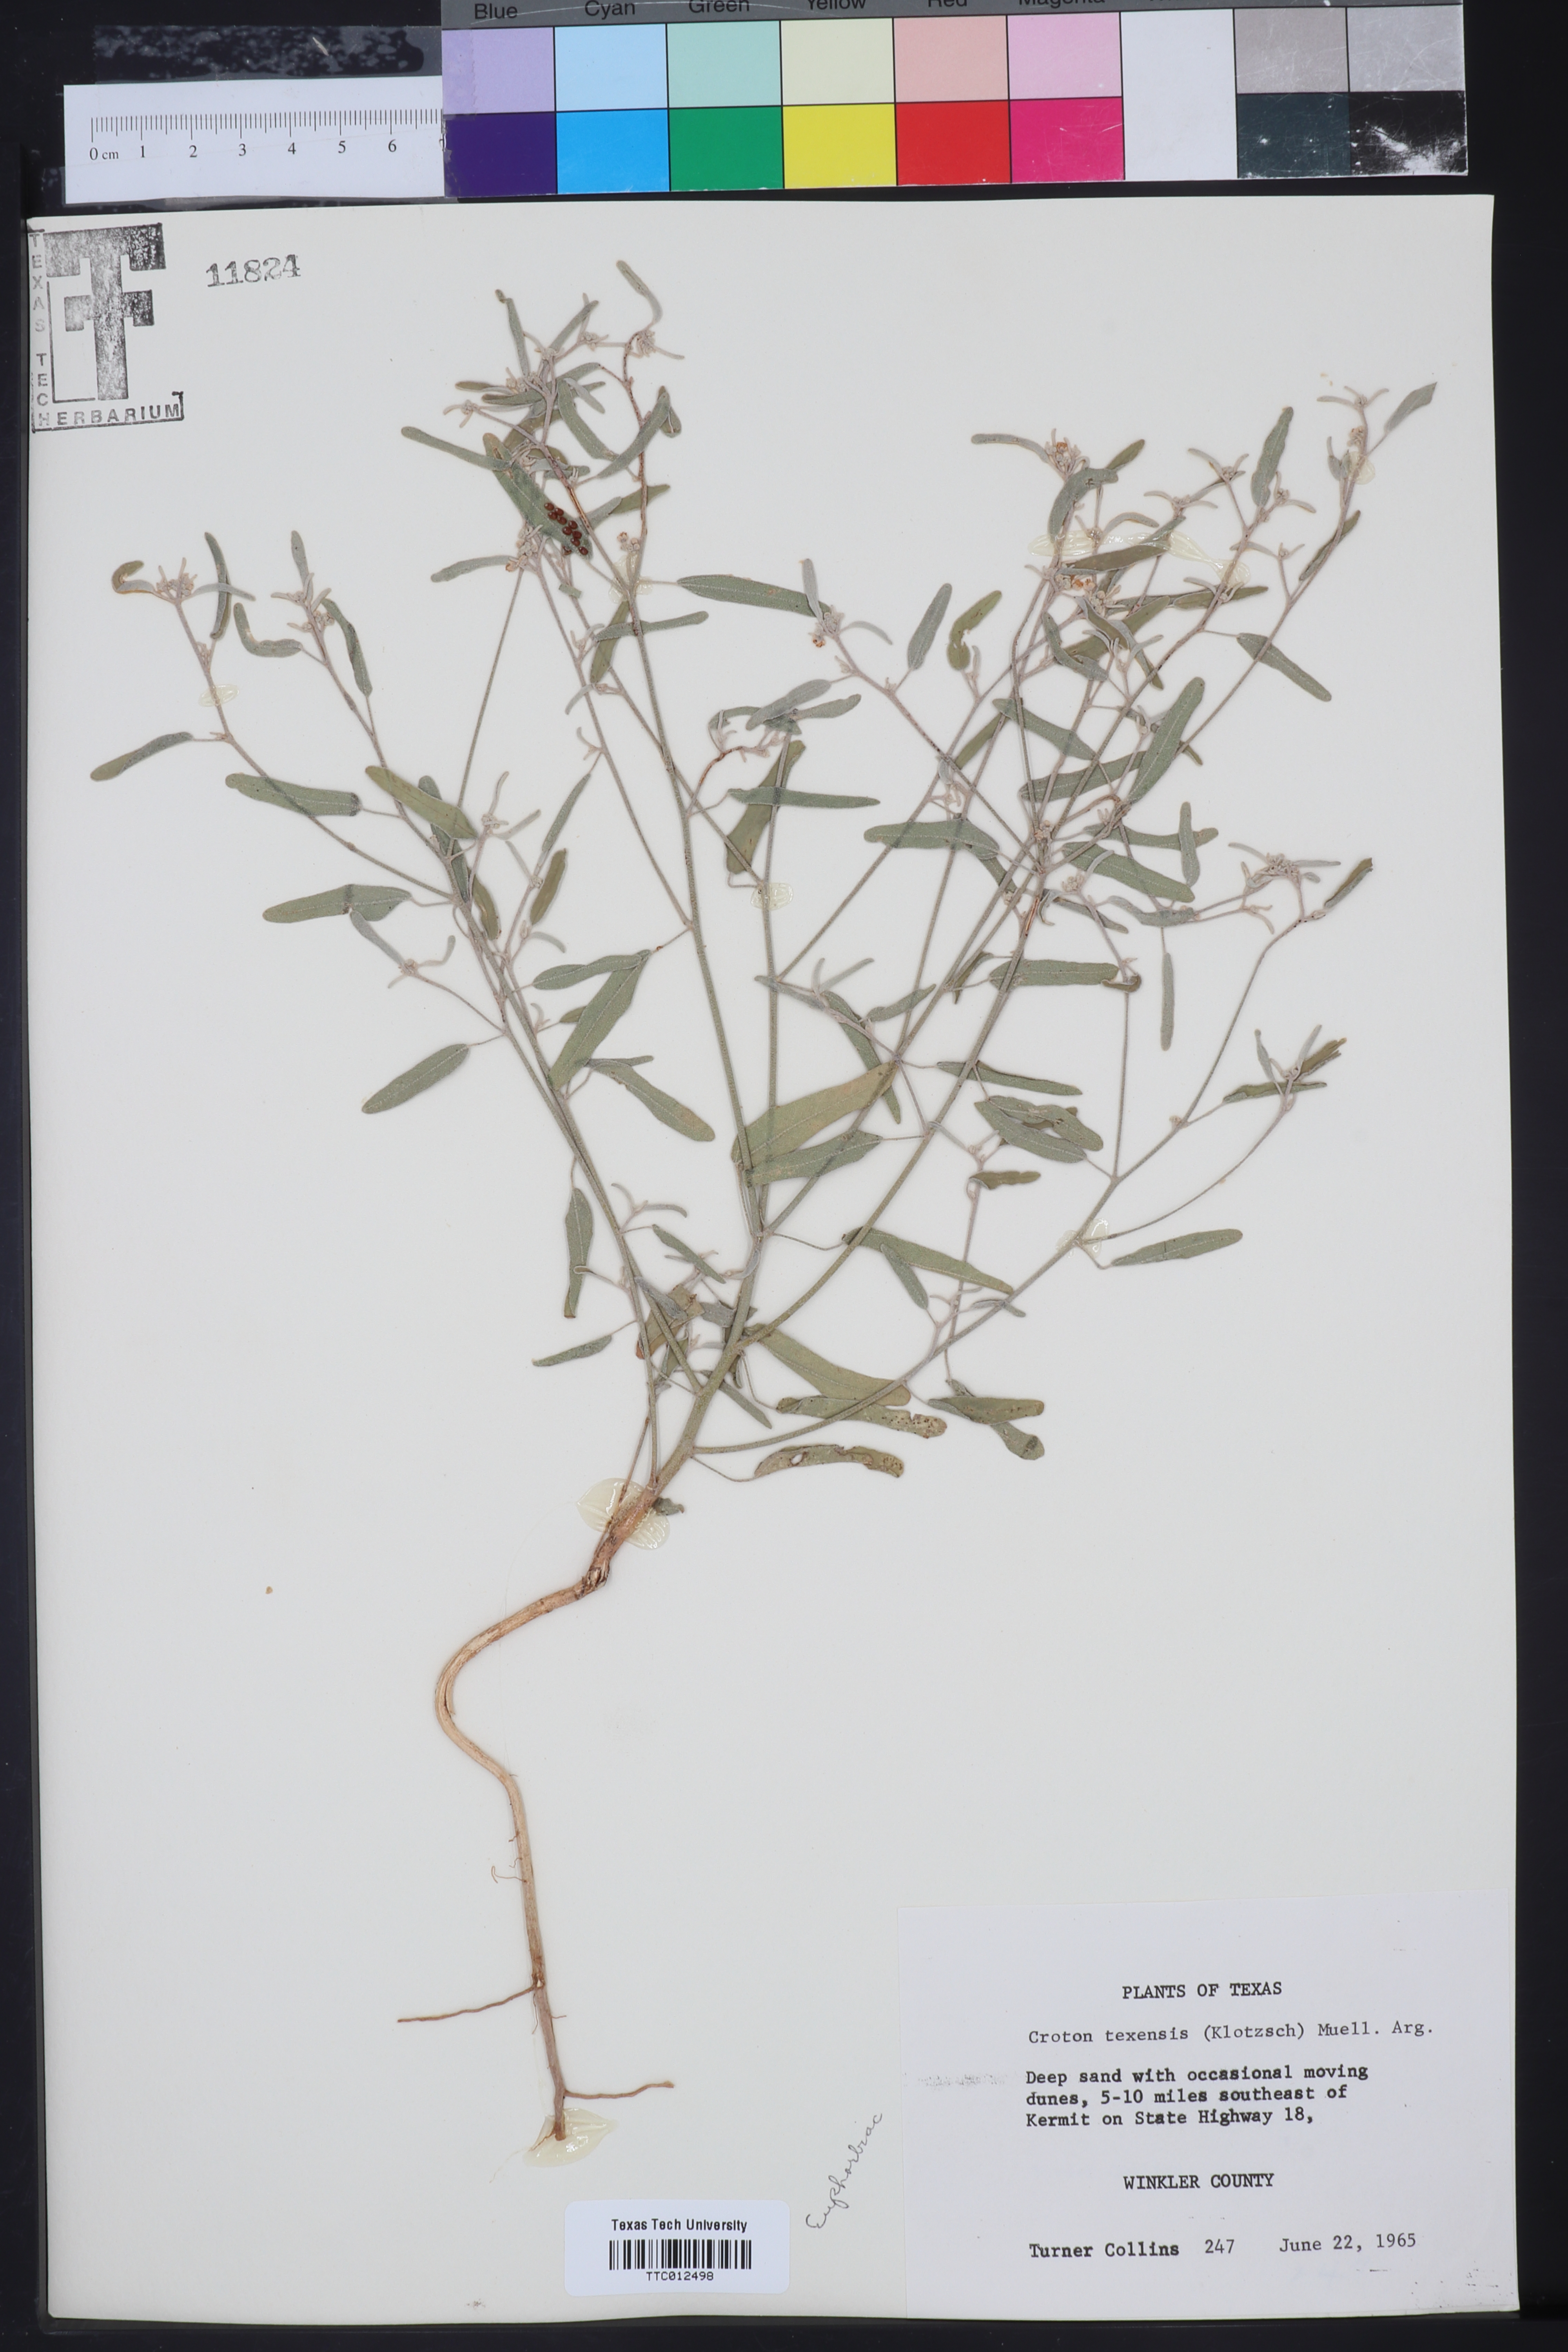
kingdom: Plantae
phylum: Tracheophyta
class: Magnoliopsida
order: Malpighiales
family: Euphorbiaceae
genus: Croton
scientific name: Croton texensis
